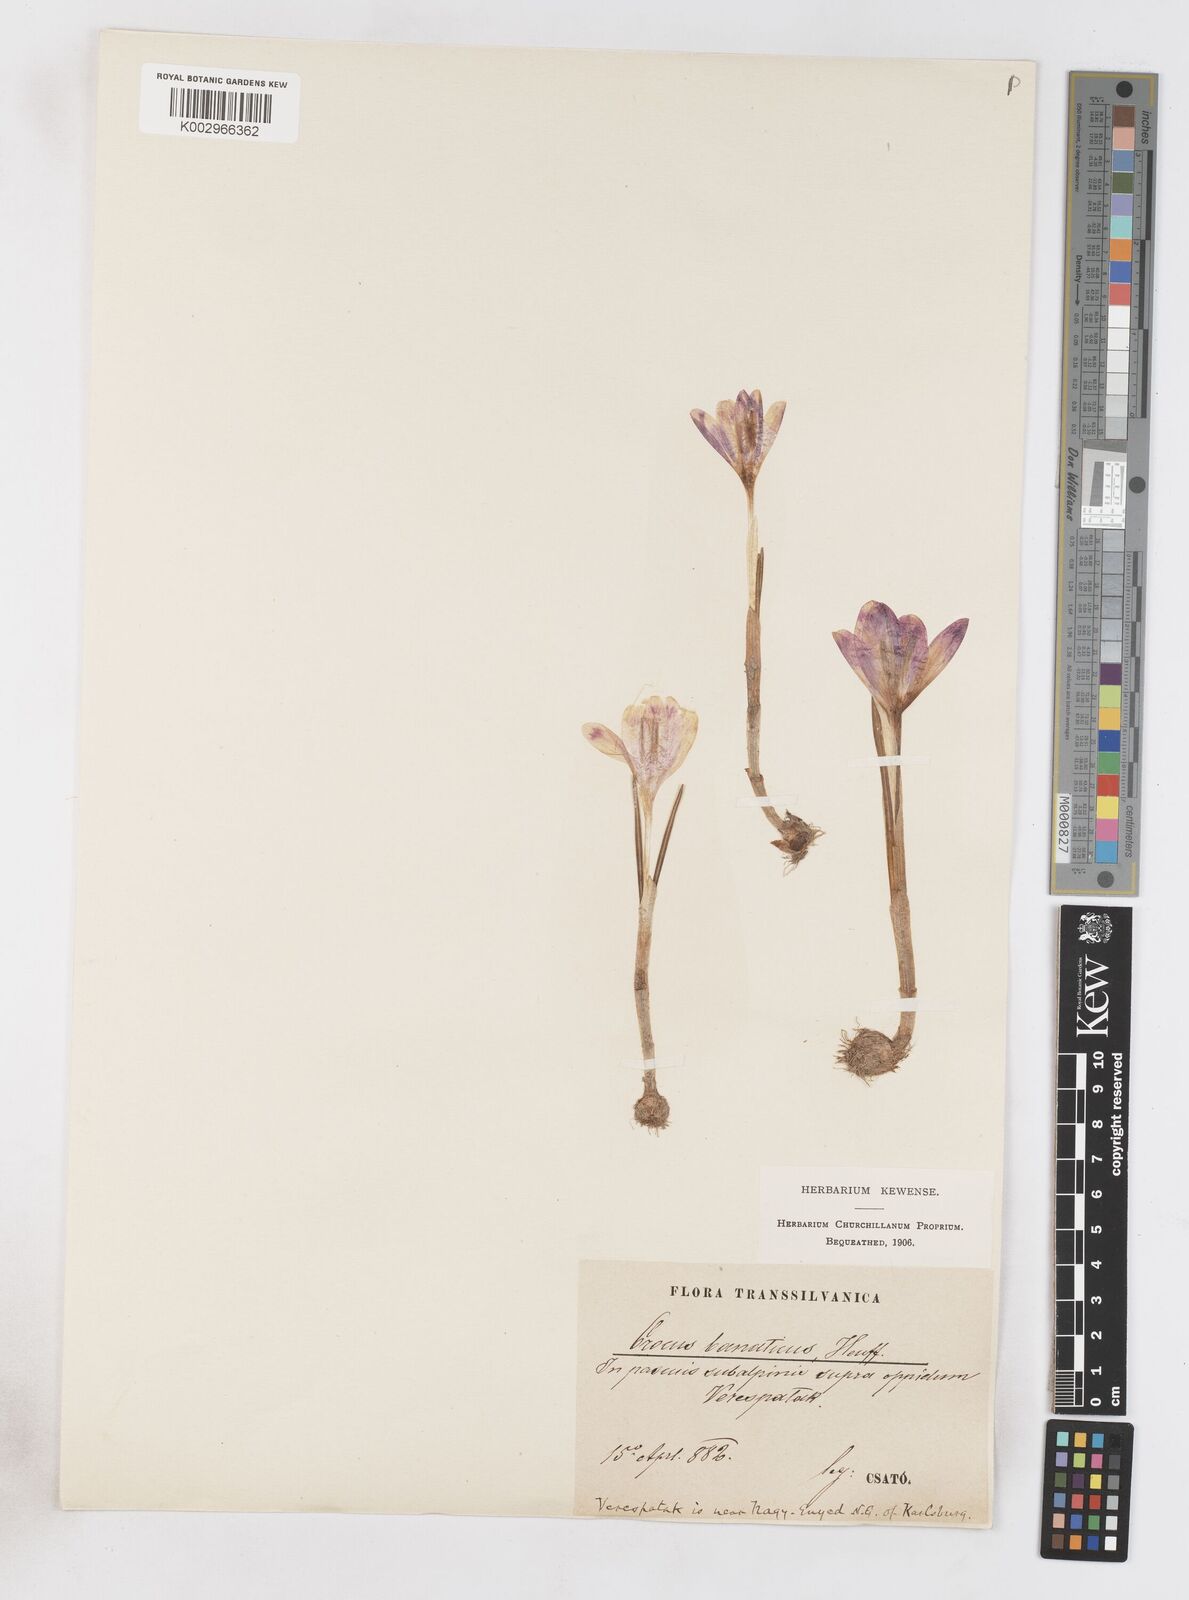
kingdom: Plantae
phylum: Tracheophyta
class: Liliopsida
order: Asparagales
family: Iridaceae
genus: Crocus
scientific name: Crocus vernus
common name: Spring crocus
